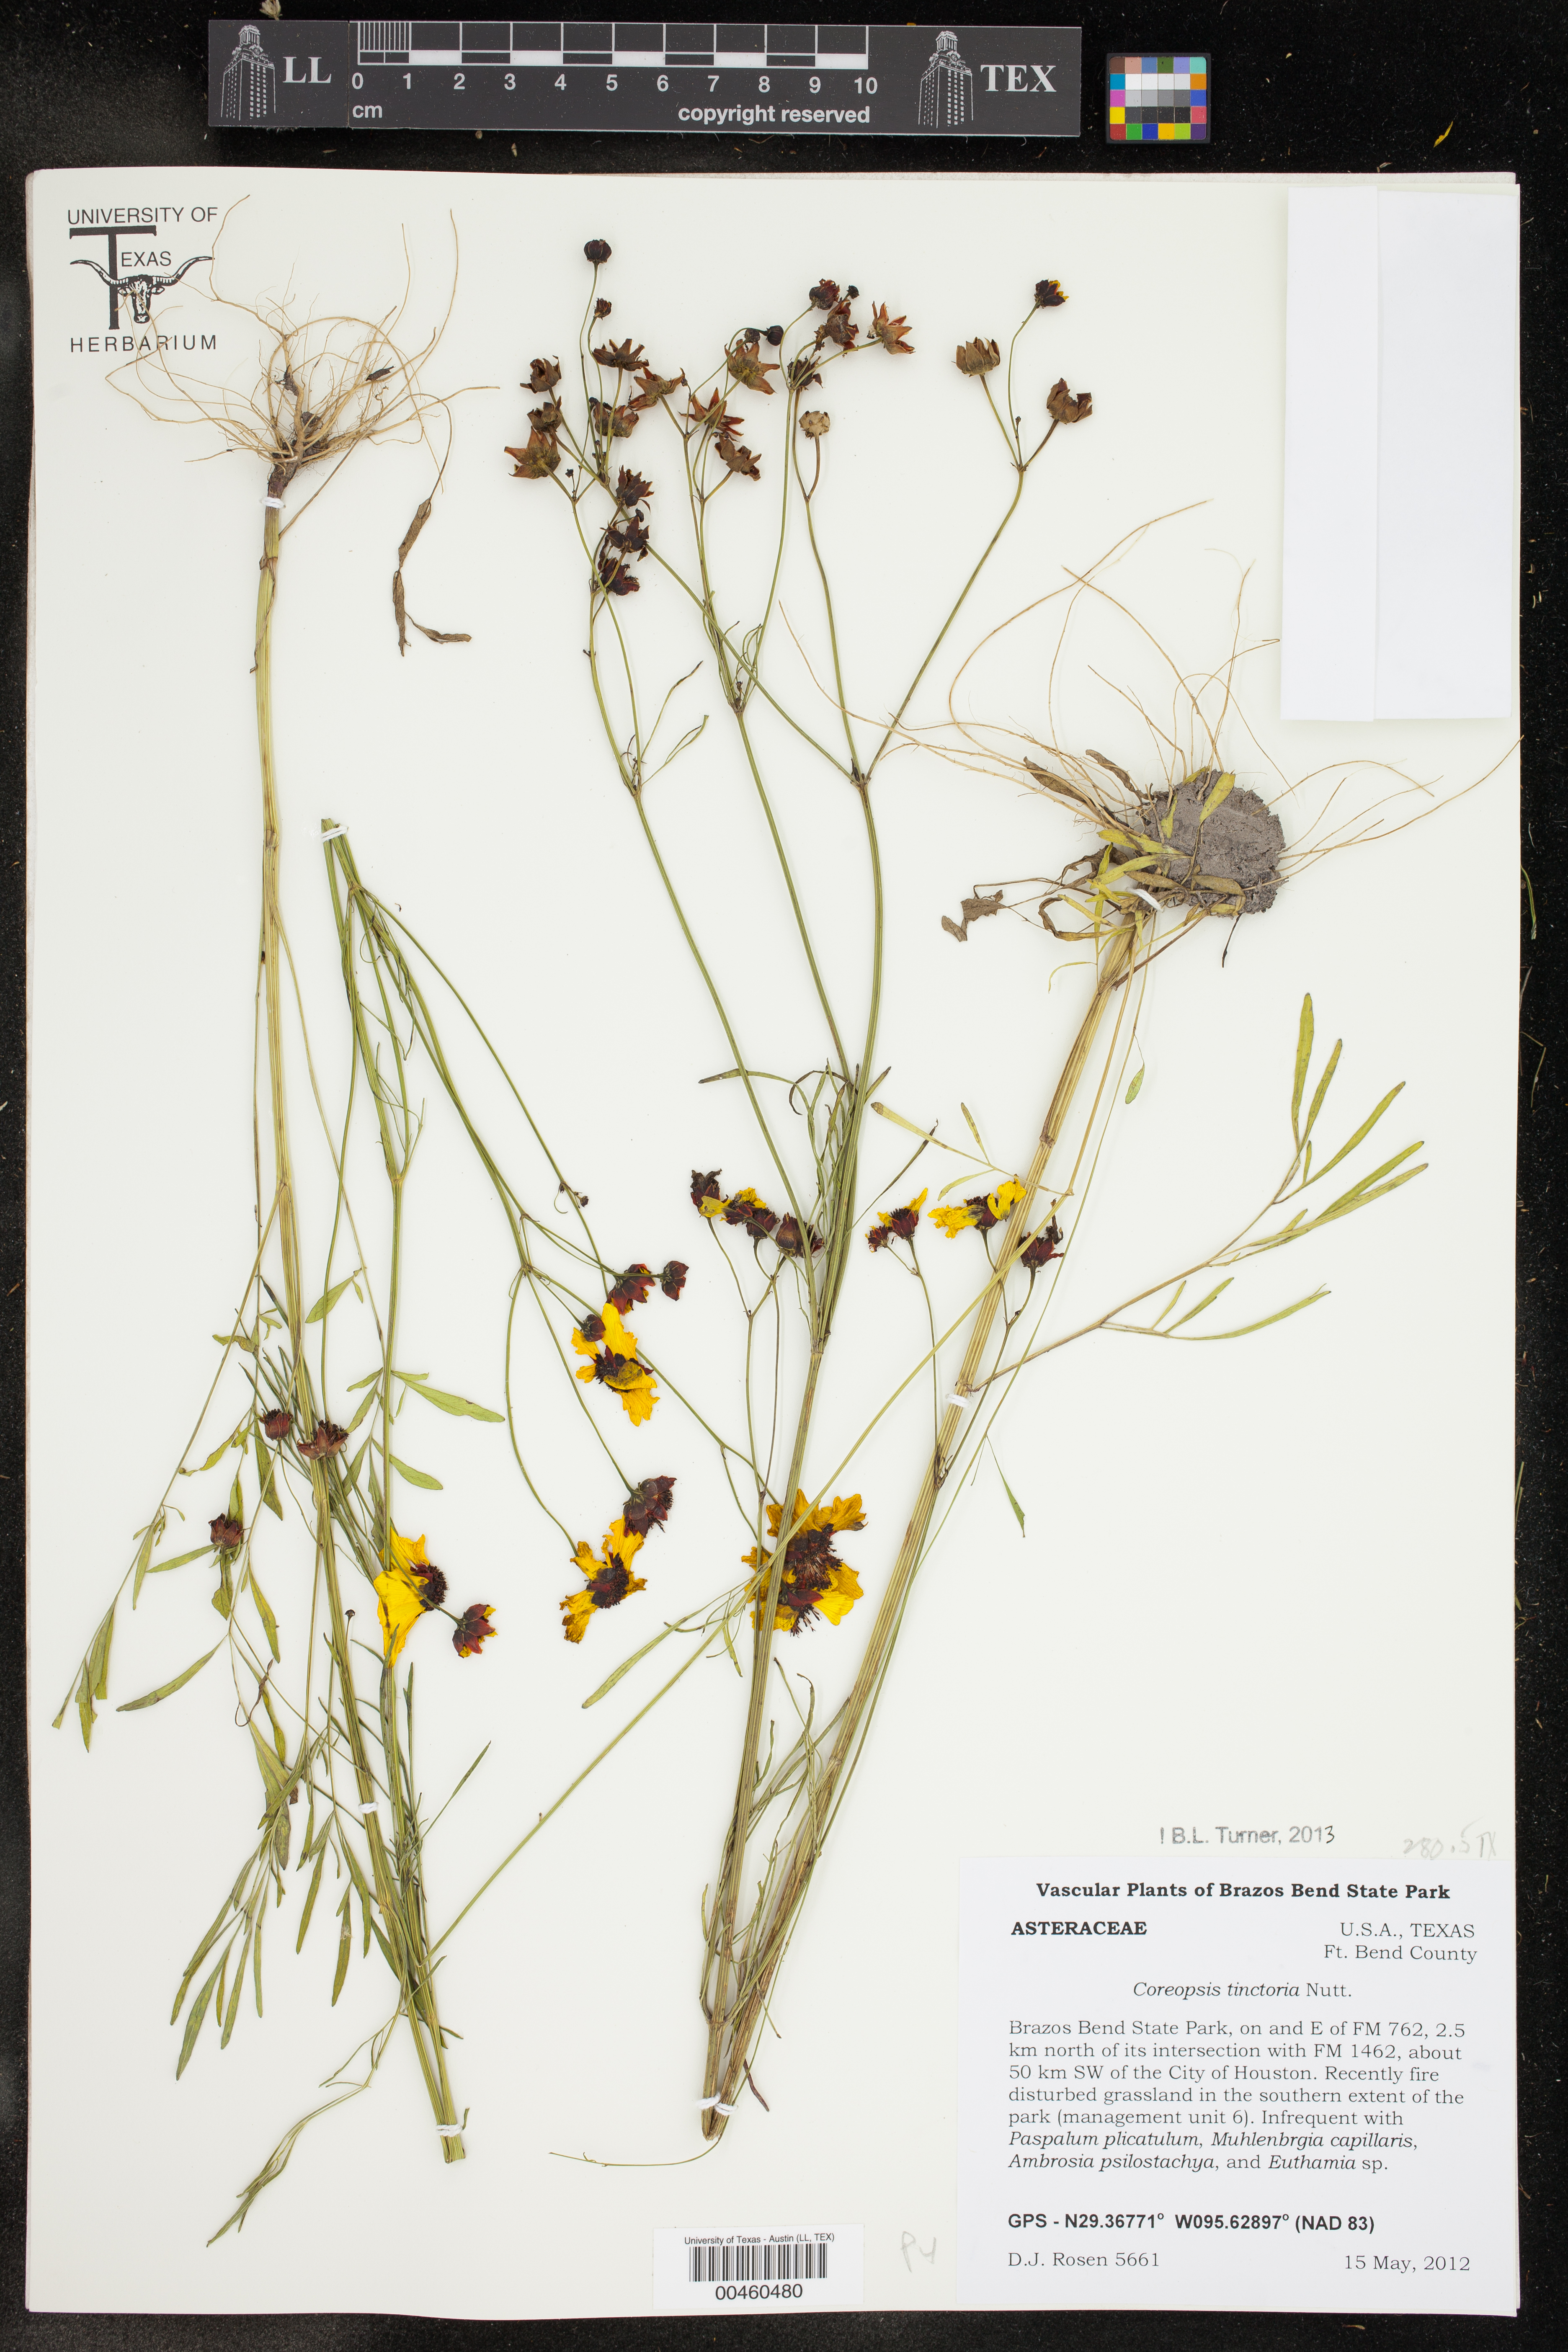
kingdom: Plantae
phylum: Tracheophyta
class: Magnoliopsida
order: Asterales
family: Asteraceae
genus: Coreopsis
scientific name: Coreopsis tinctoria
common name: Garden tickseed
